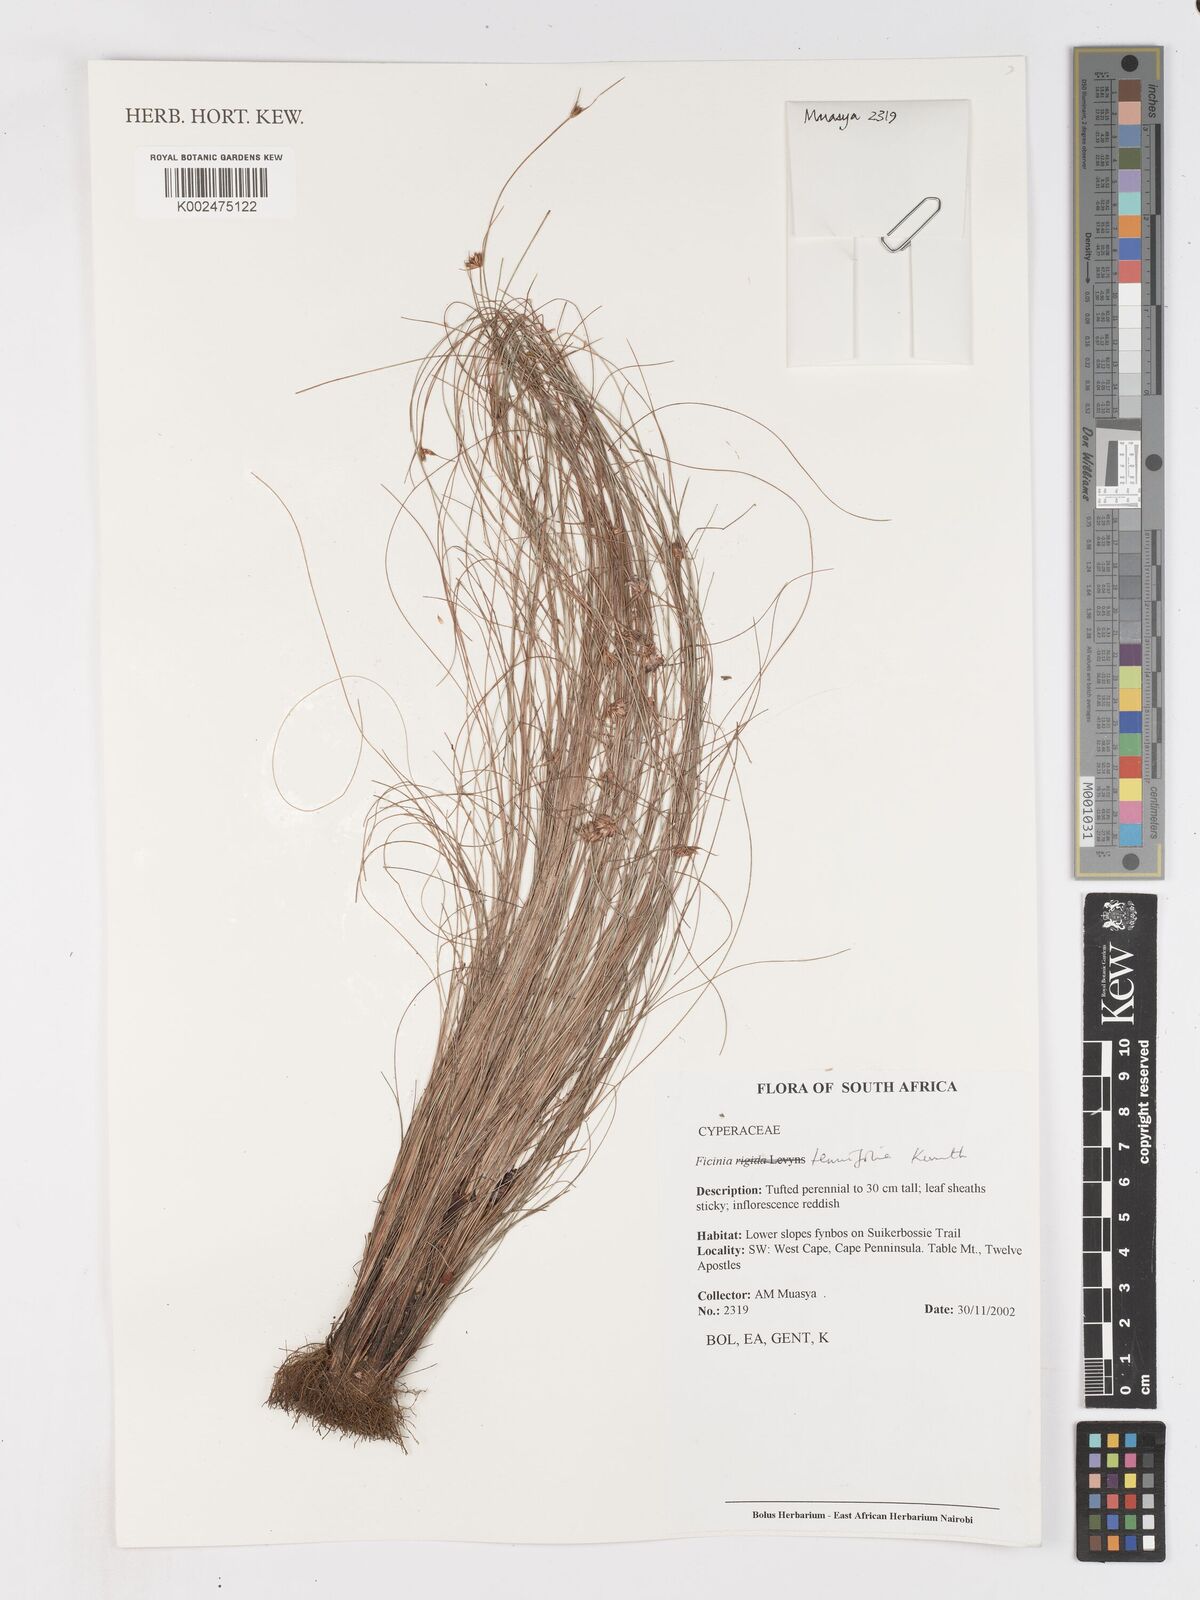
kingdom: Plantae
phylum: Tracheophyta
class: Liliopsida
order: Poales
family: Cyperaceae
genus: Ficinia
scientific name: Ficinia filiformis
